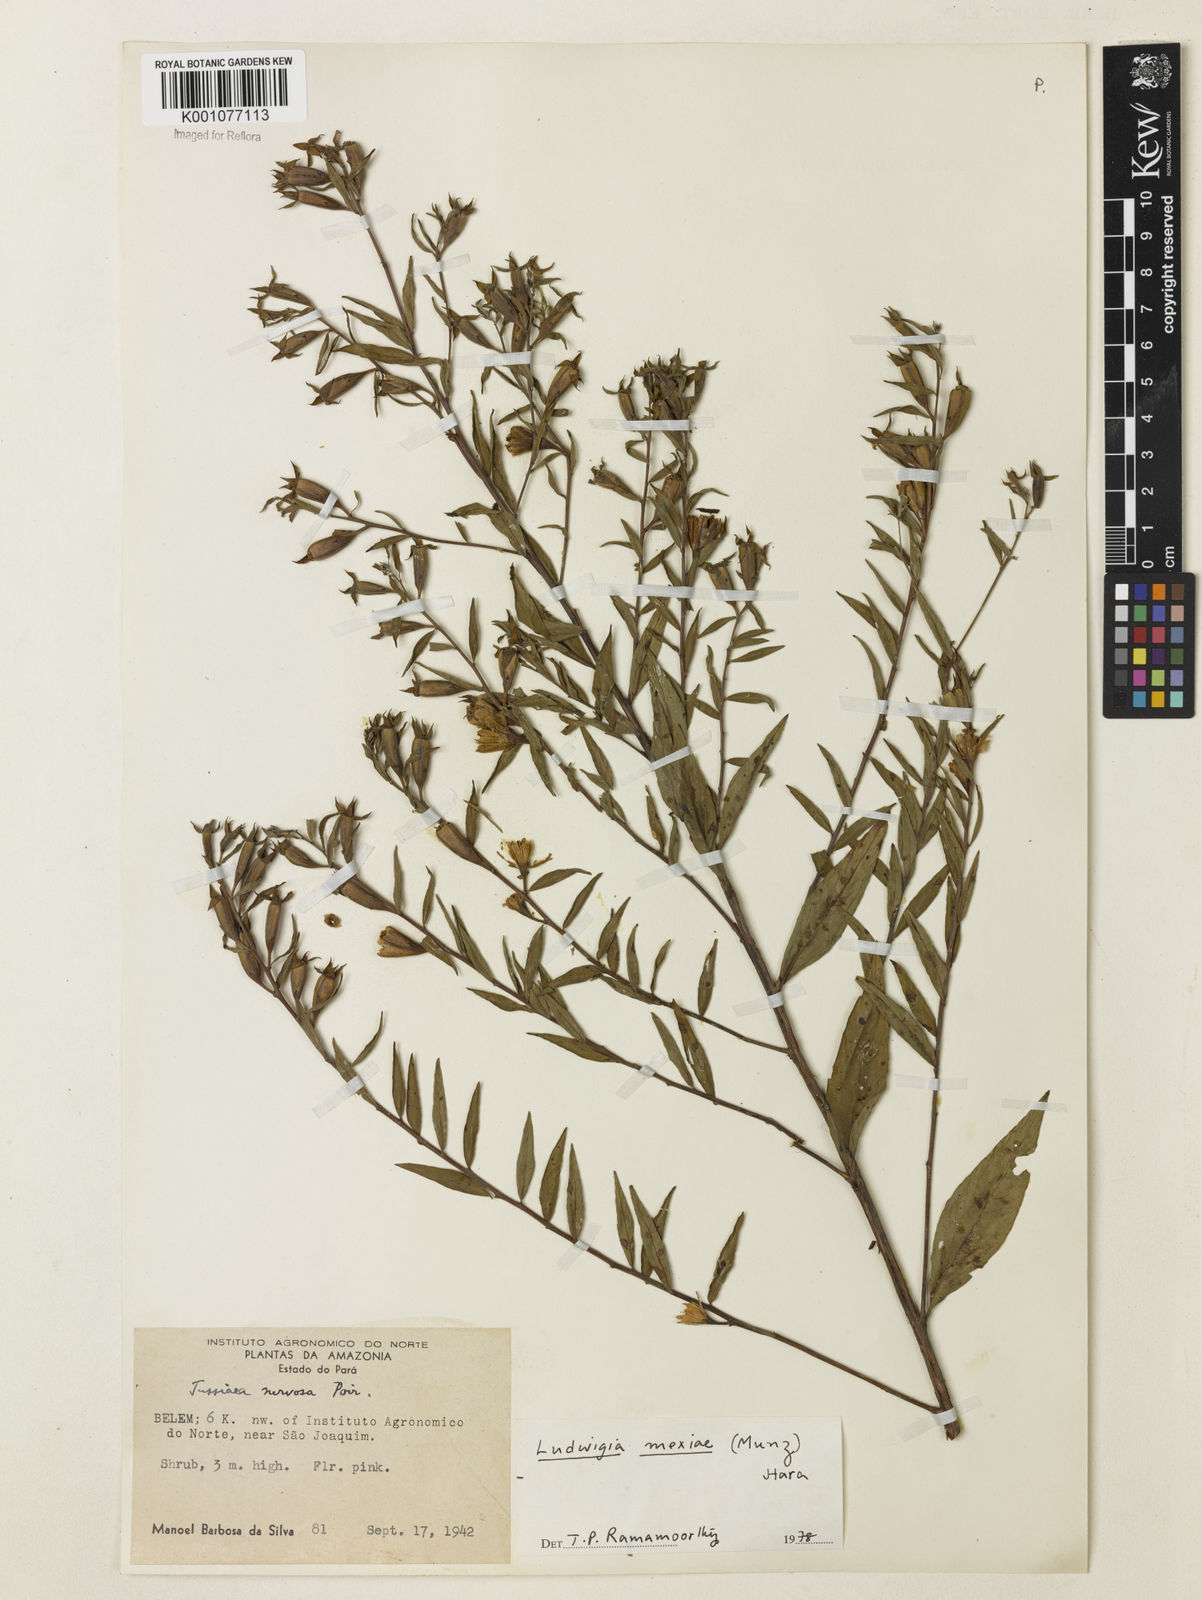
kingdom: Plantae
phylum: Tracheophyta
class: Magnoliopsida
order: Myrtales
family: Onagraceae
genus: Ludwigia
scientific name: Ludwigia mexiae
